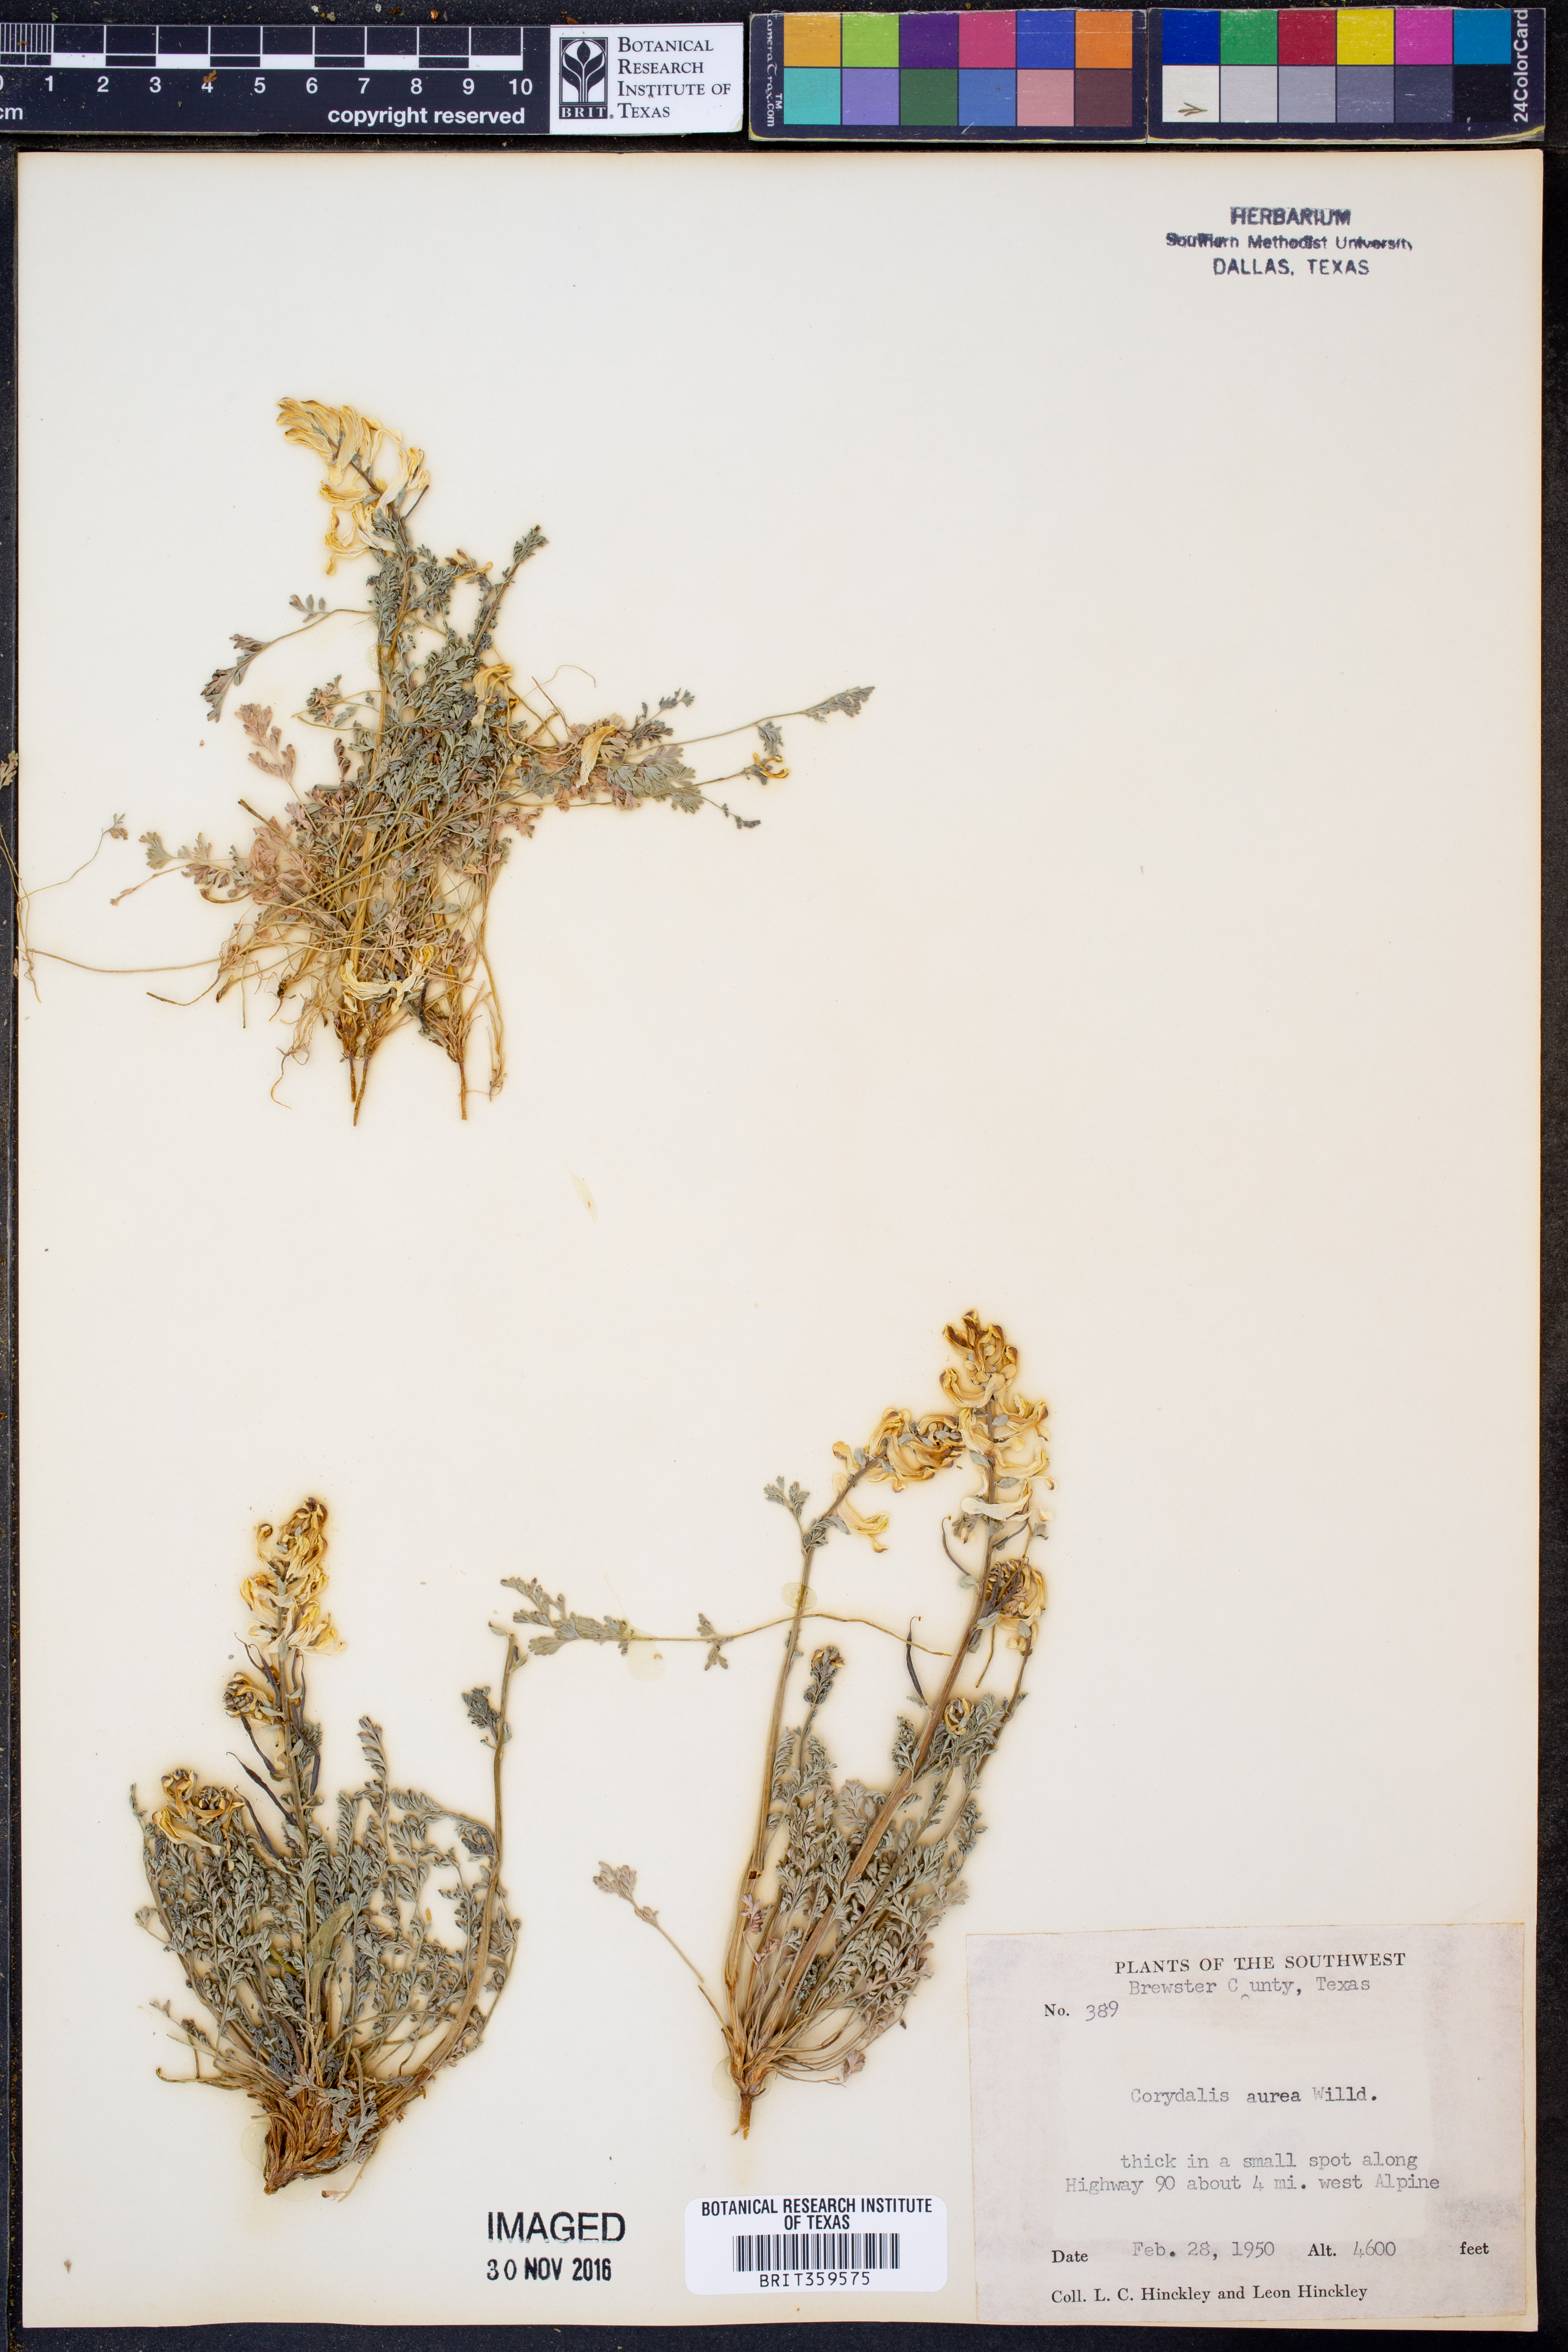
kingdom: Plantae
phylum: Tracheophyta
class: Magnoliopsida
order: Ranunculales
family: Papaveraceae
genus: Corydalis
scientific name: Corydalis aurea
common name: Golden corydalis
